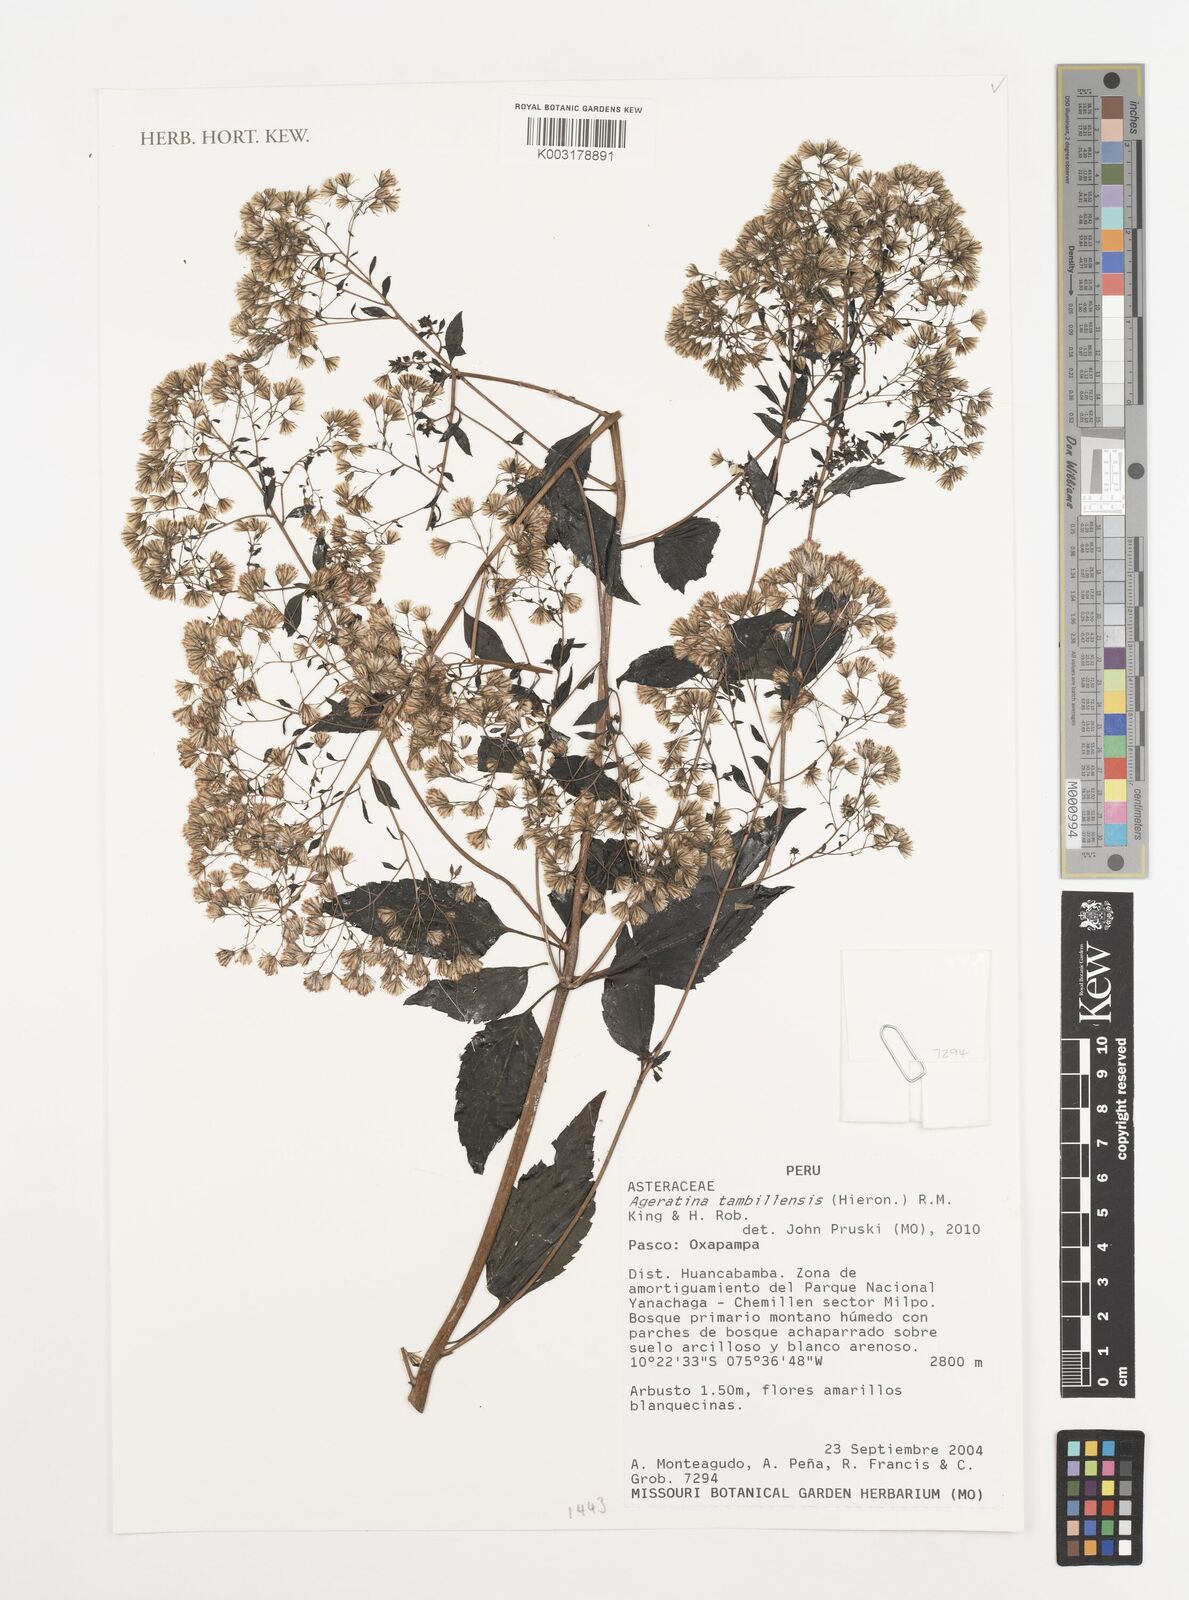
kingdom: Plantae
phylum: Tracheophyta
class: Magnoliopsida
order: Asterales
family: Asteraceae
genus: Ageratina
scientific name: Ageratina tambillensis
